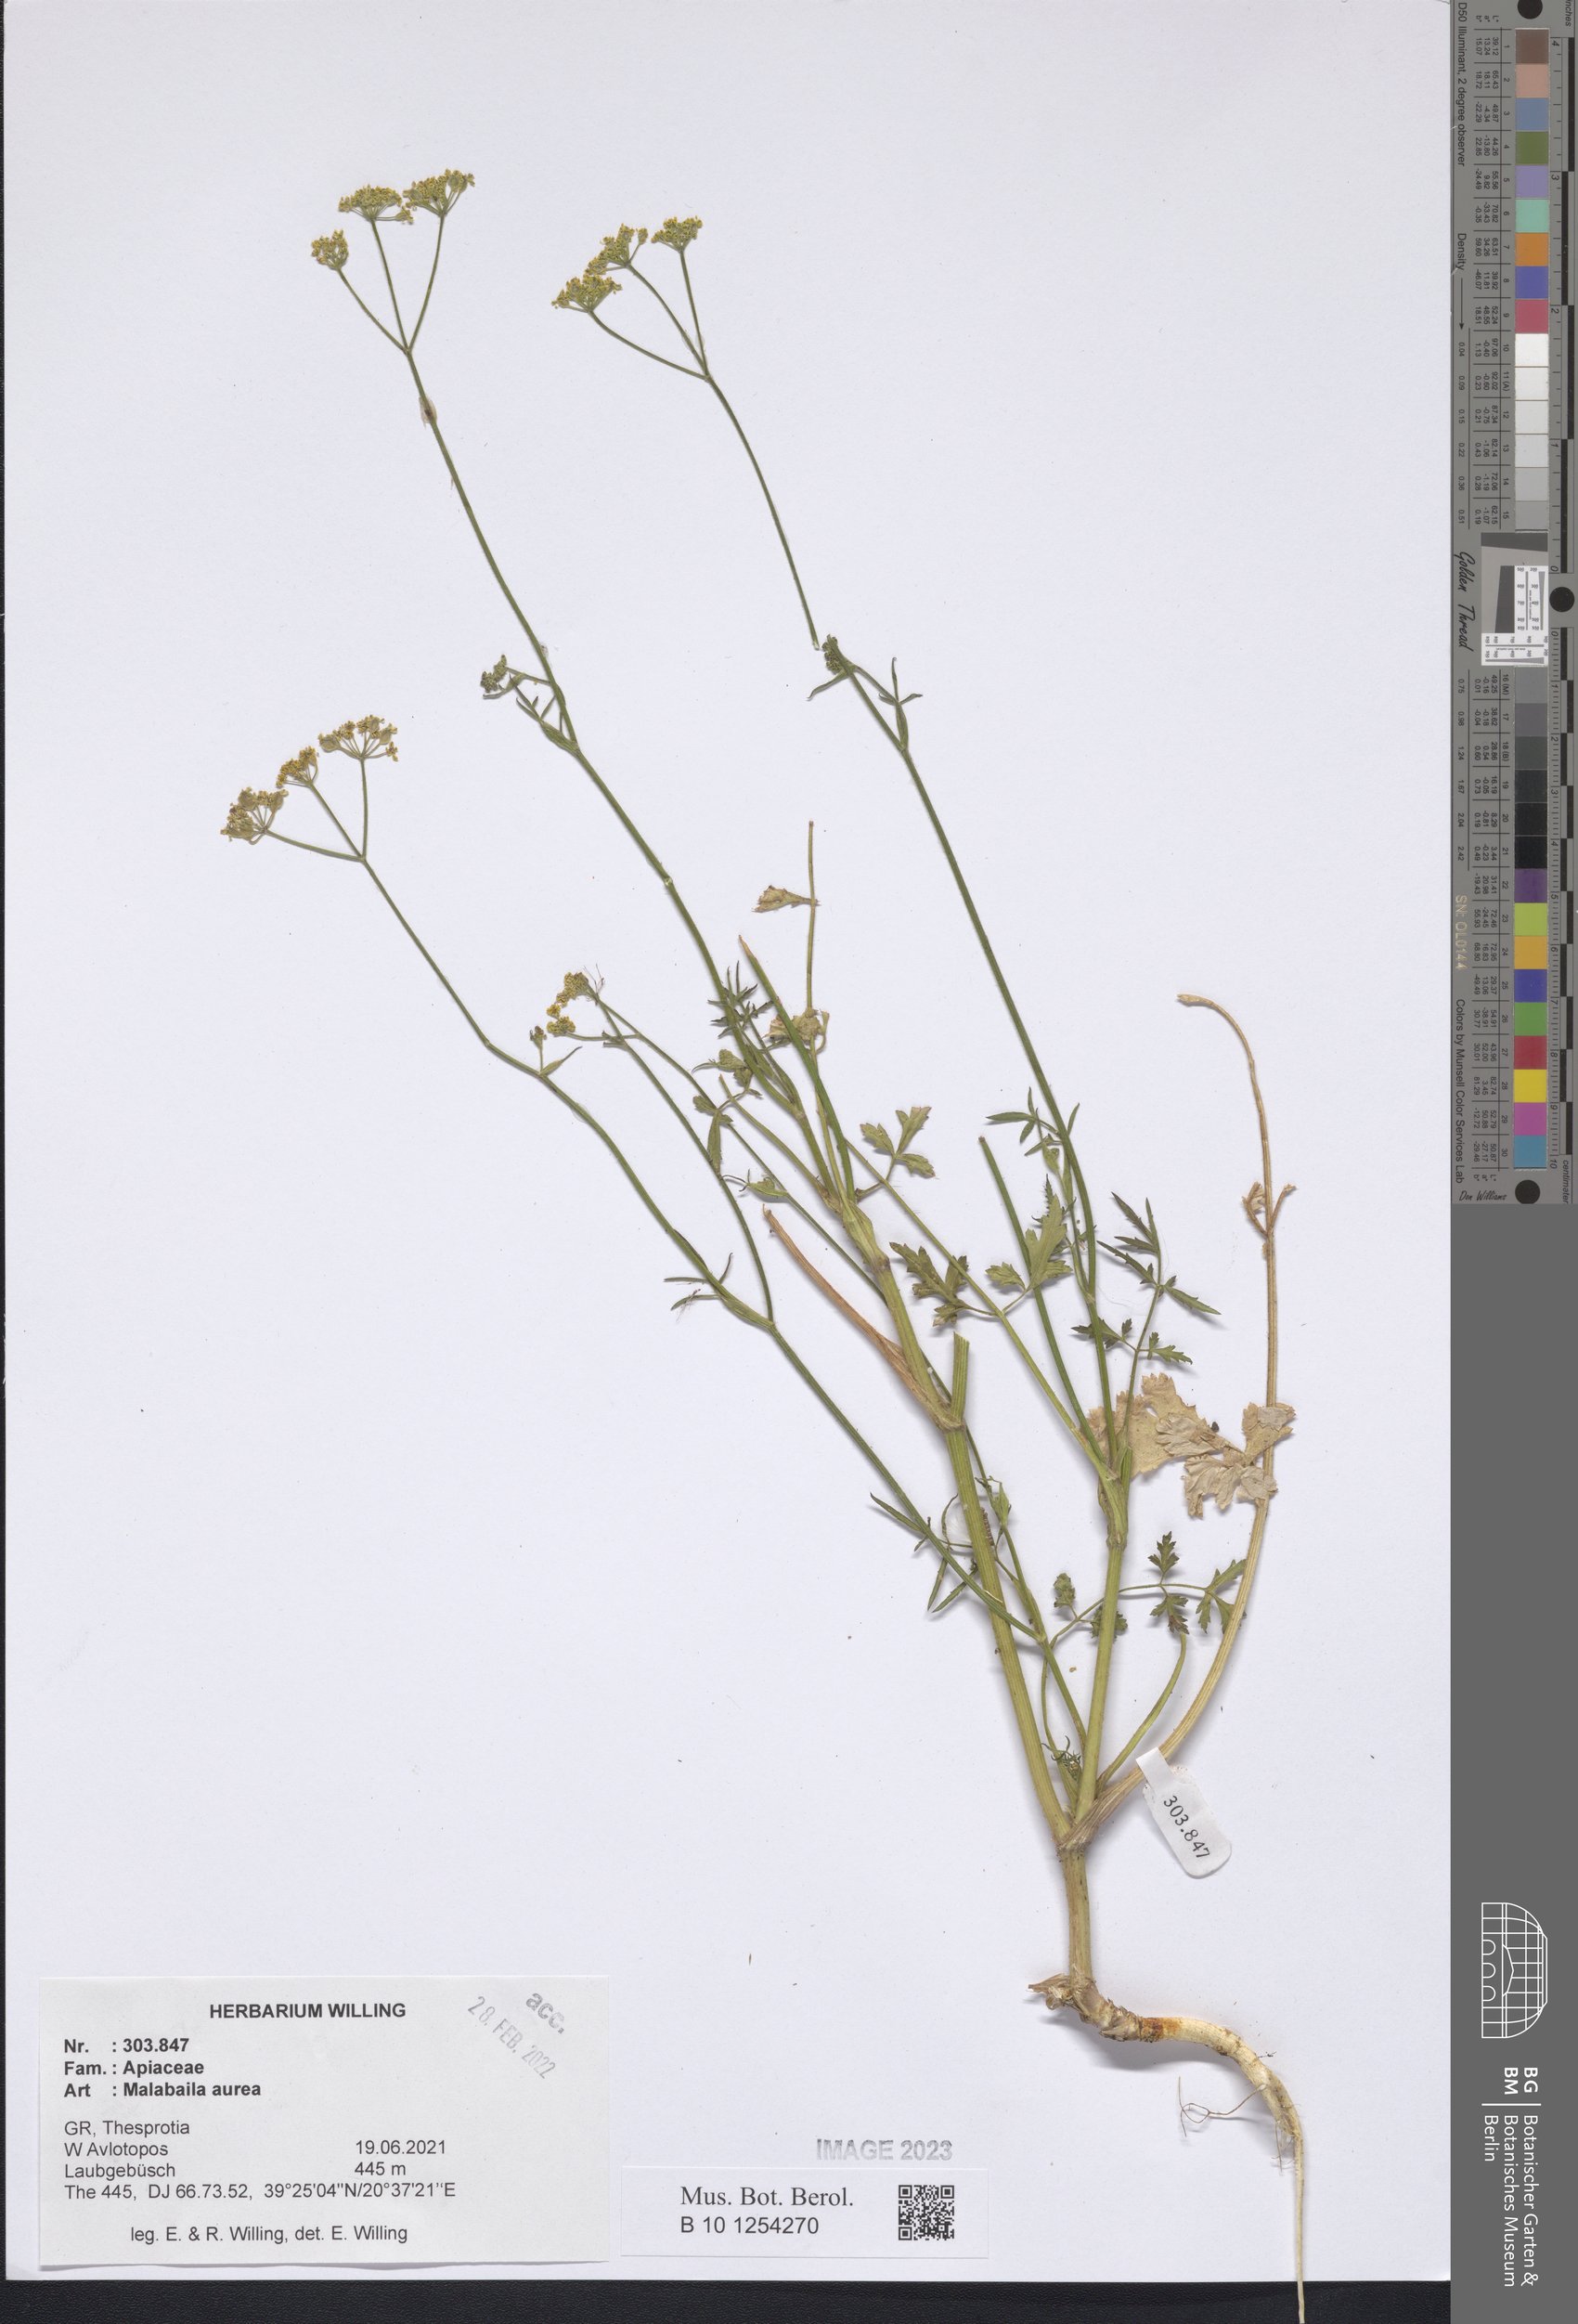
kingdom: Plantae
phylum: Tracheophyta
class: Magnoliopsida
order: Apiales
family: Apiaceae
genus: Leiotulus
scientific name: Leiotulus aureus
